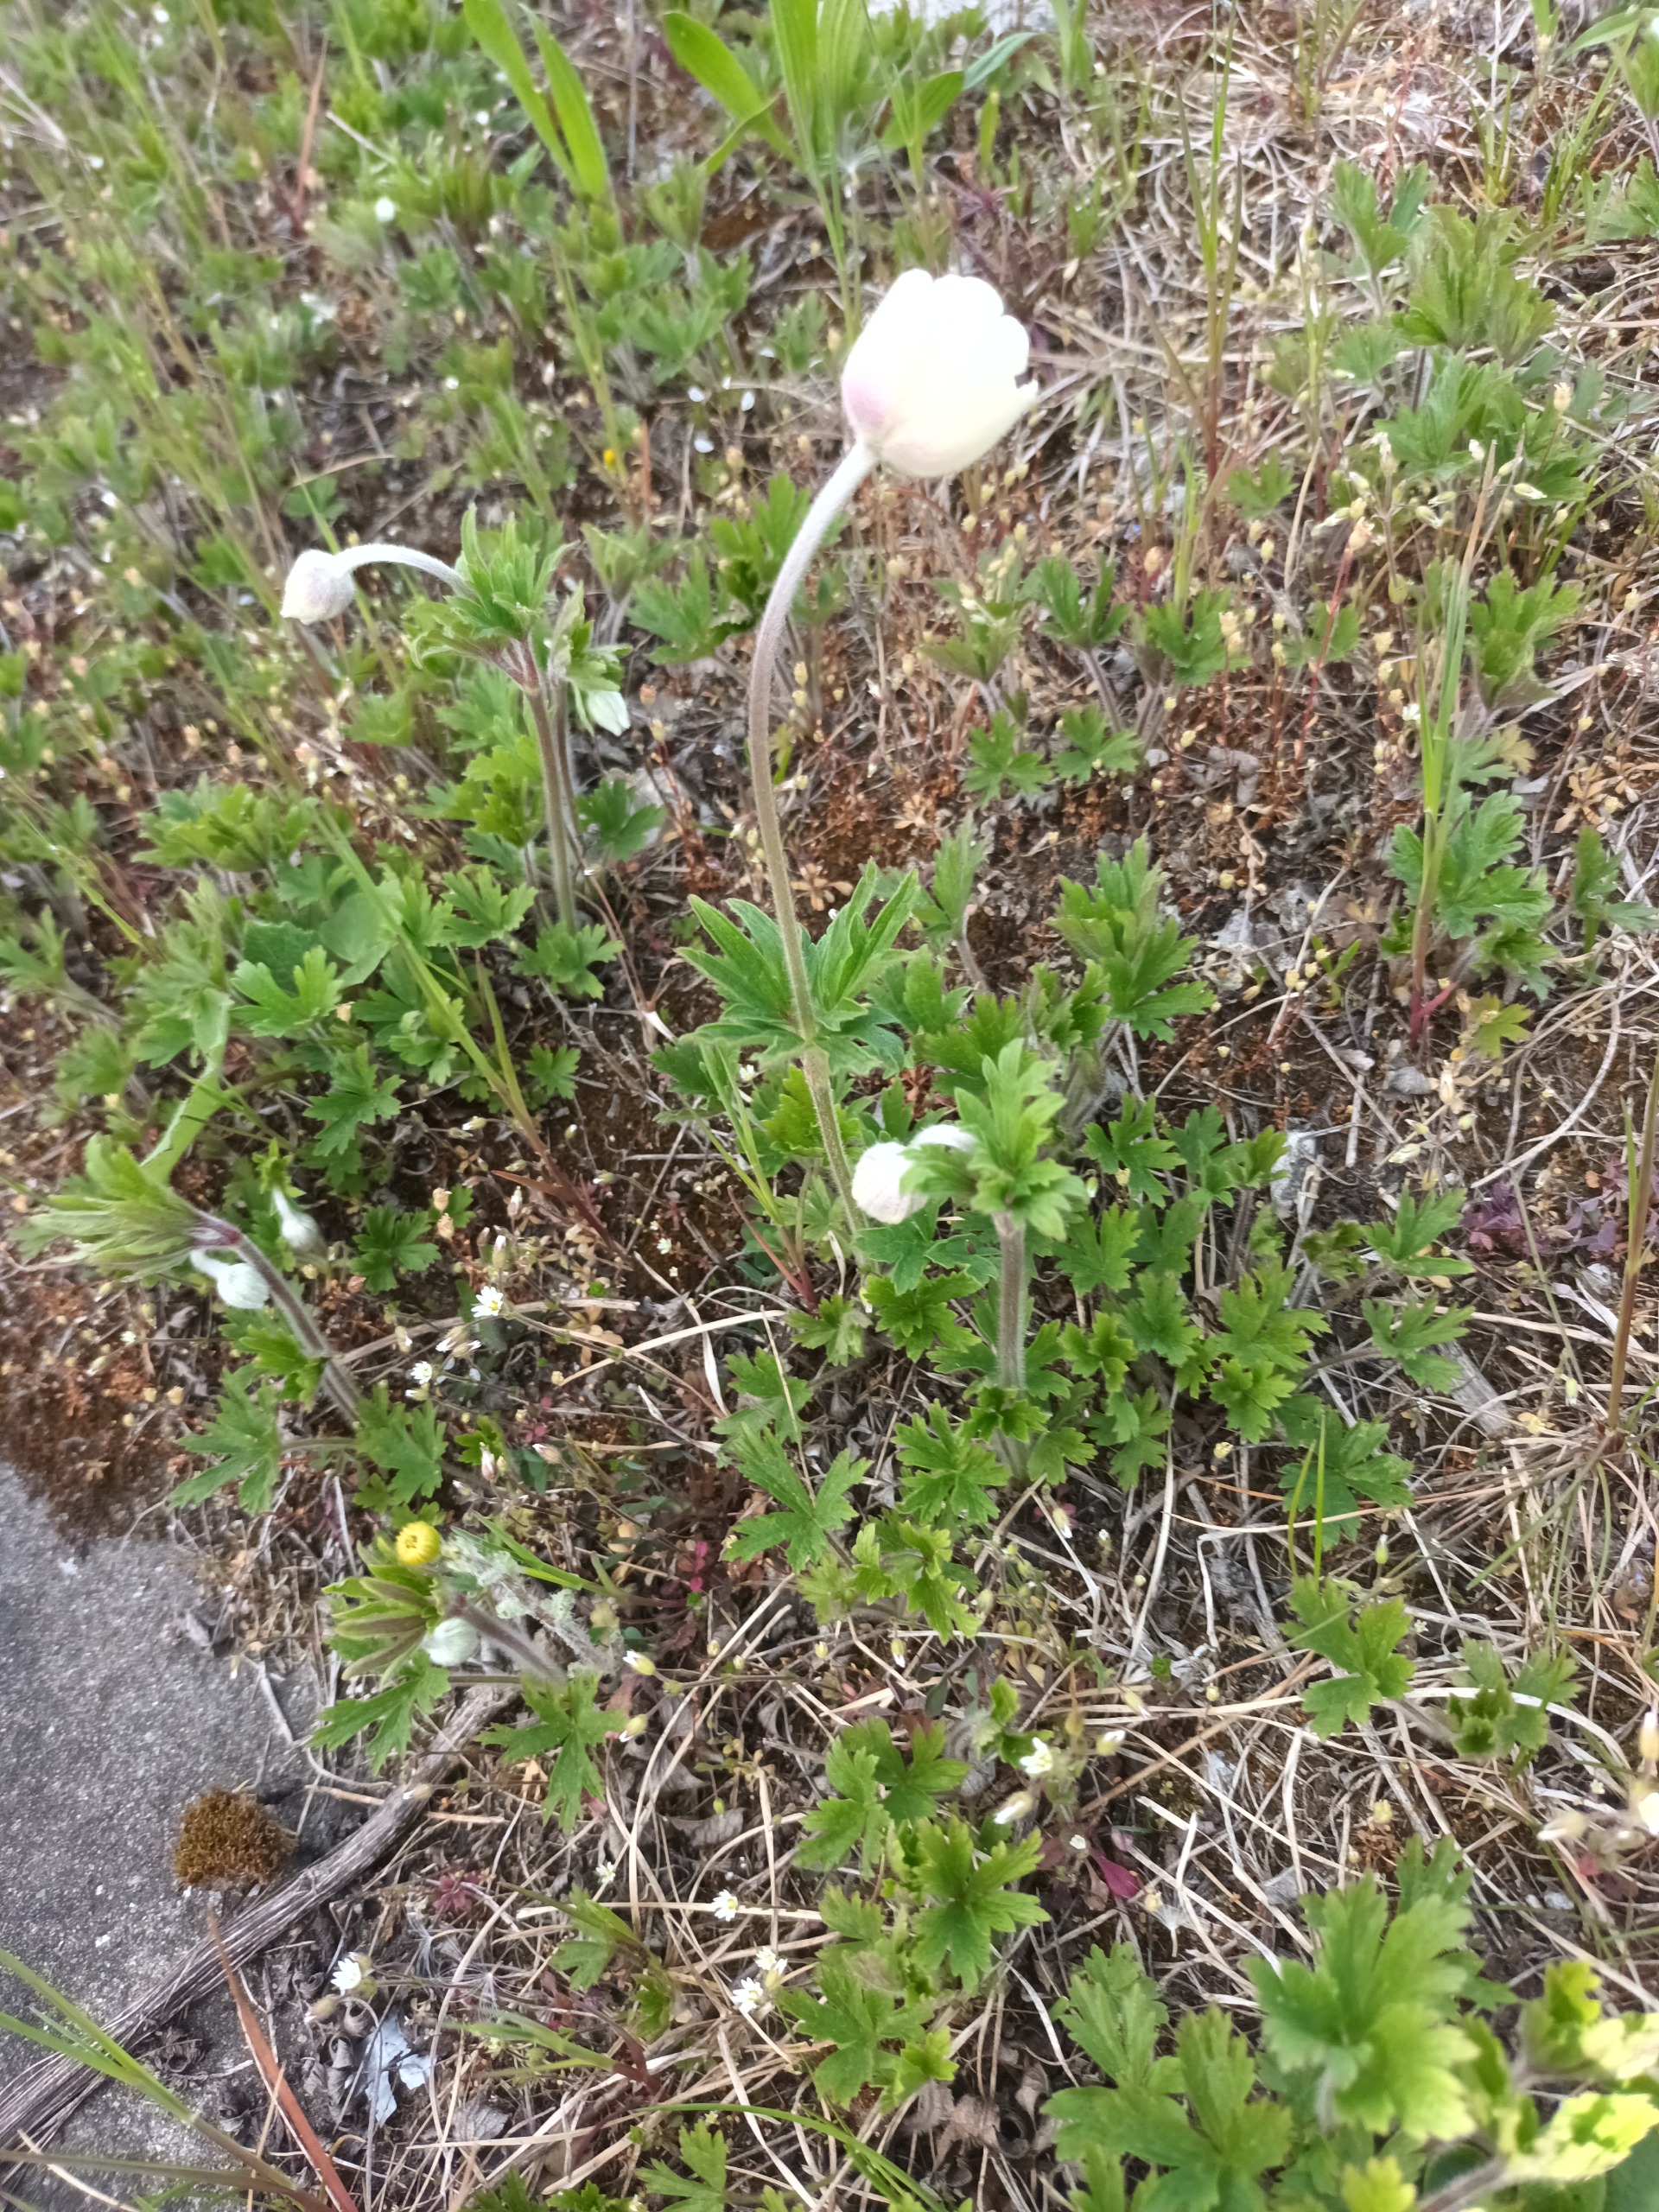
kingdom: Plantae
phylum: Tracheophyta
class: Magnoliopsida
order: Ranunculales
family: Ranunculaceae
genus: Anemone
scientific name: Anemone sylvestris
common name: Sommer-anemone
